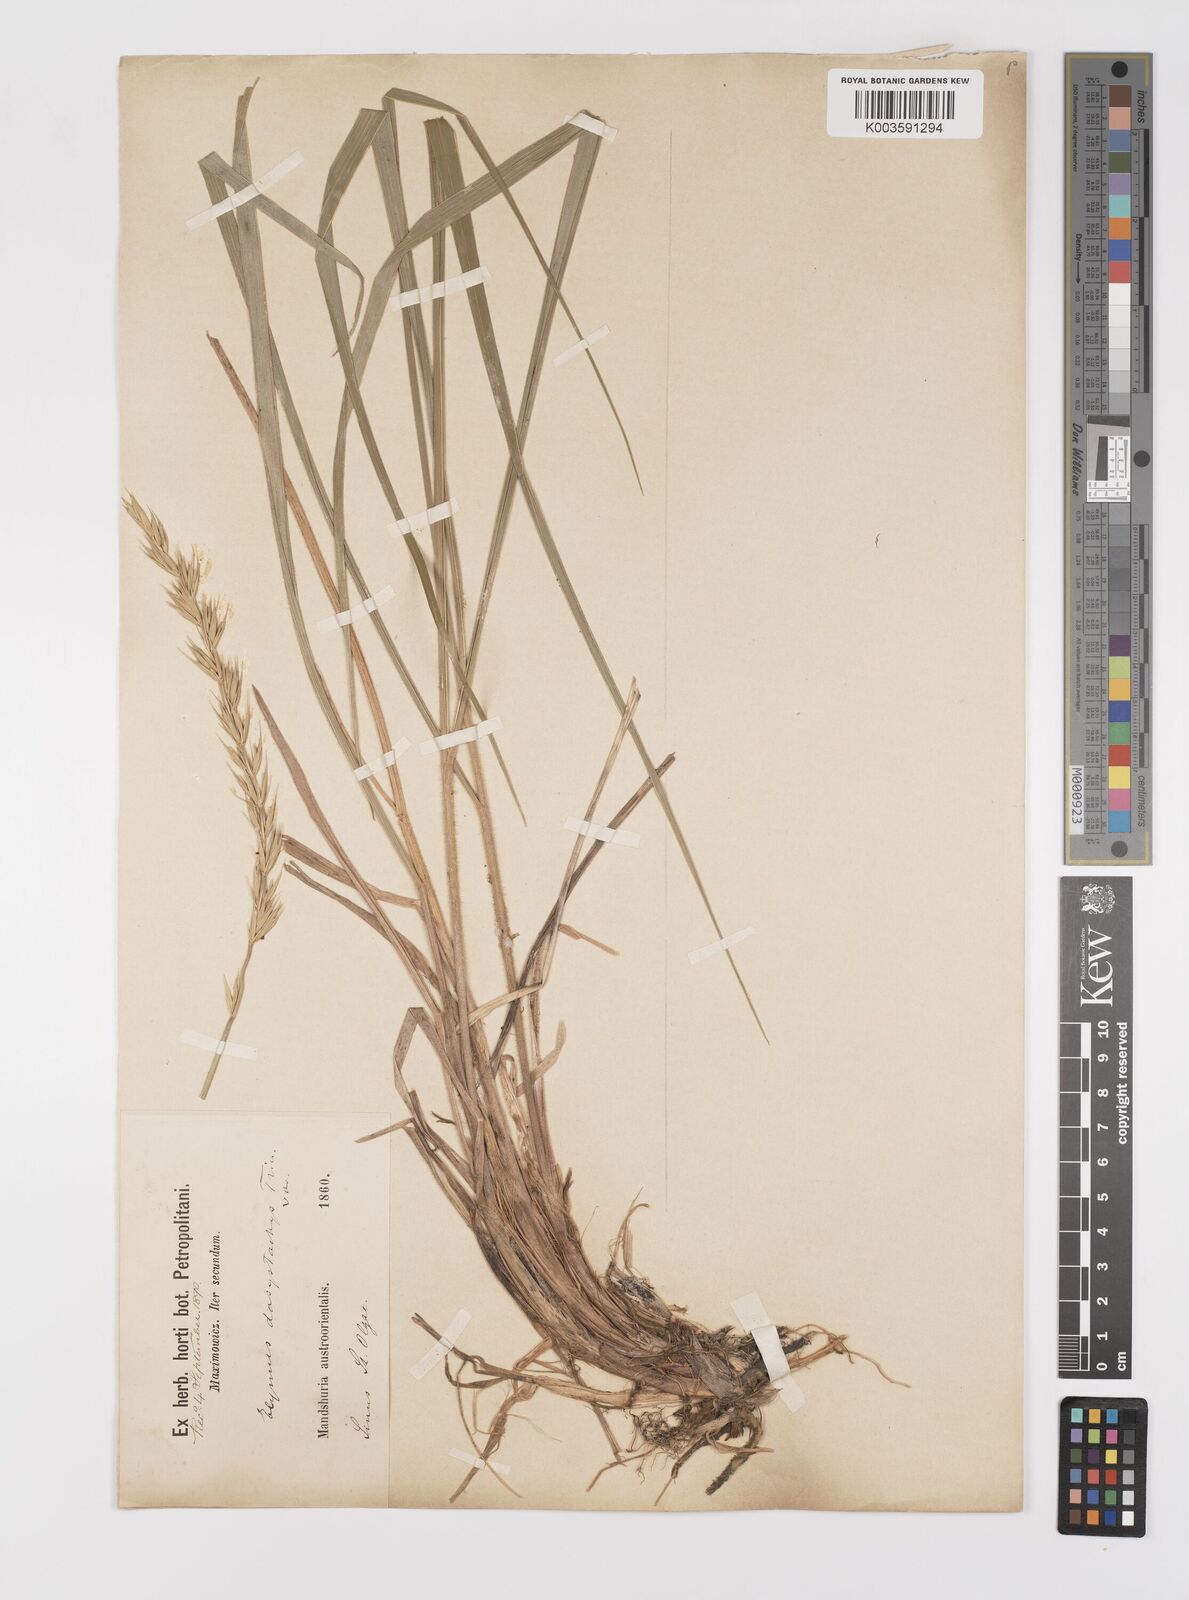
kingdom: Plantae
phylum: Tracheophyta
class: Liliopsida
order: Poales
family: Poaceae
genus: Leymus
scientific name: Leymus secalinus
